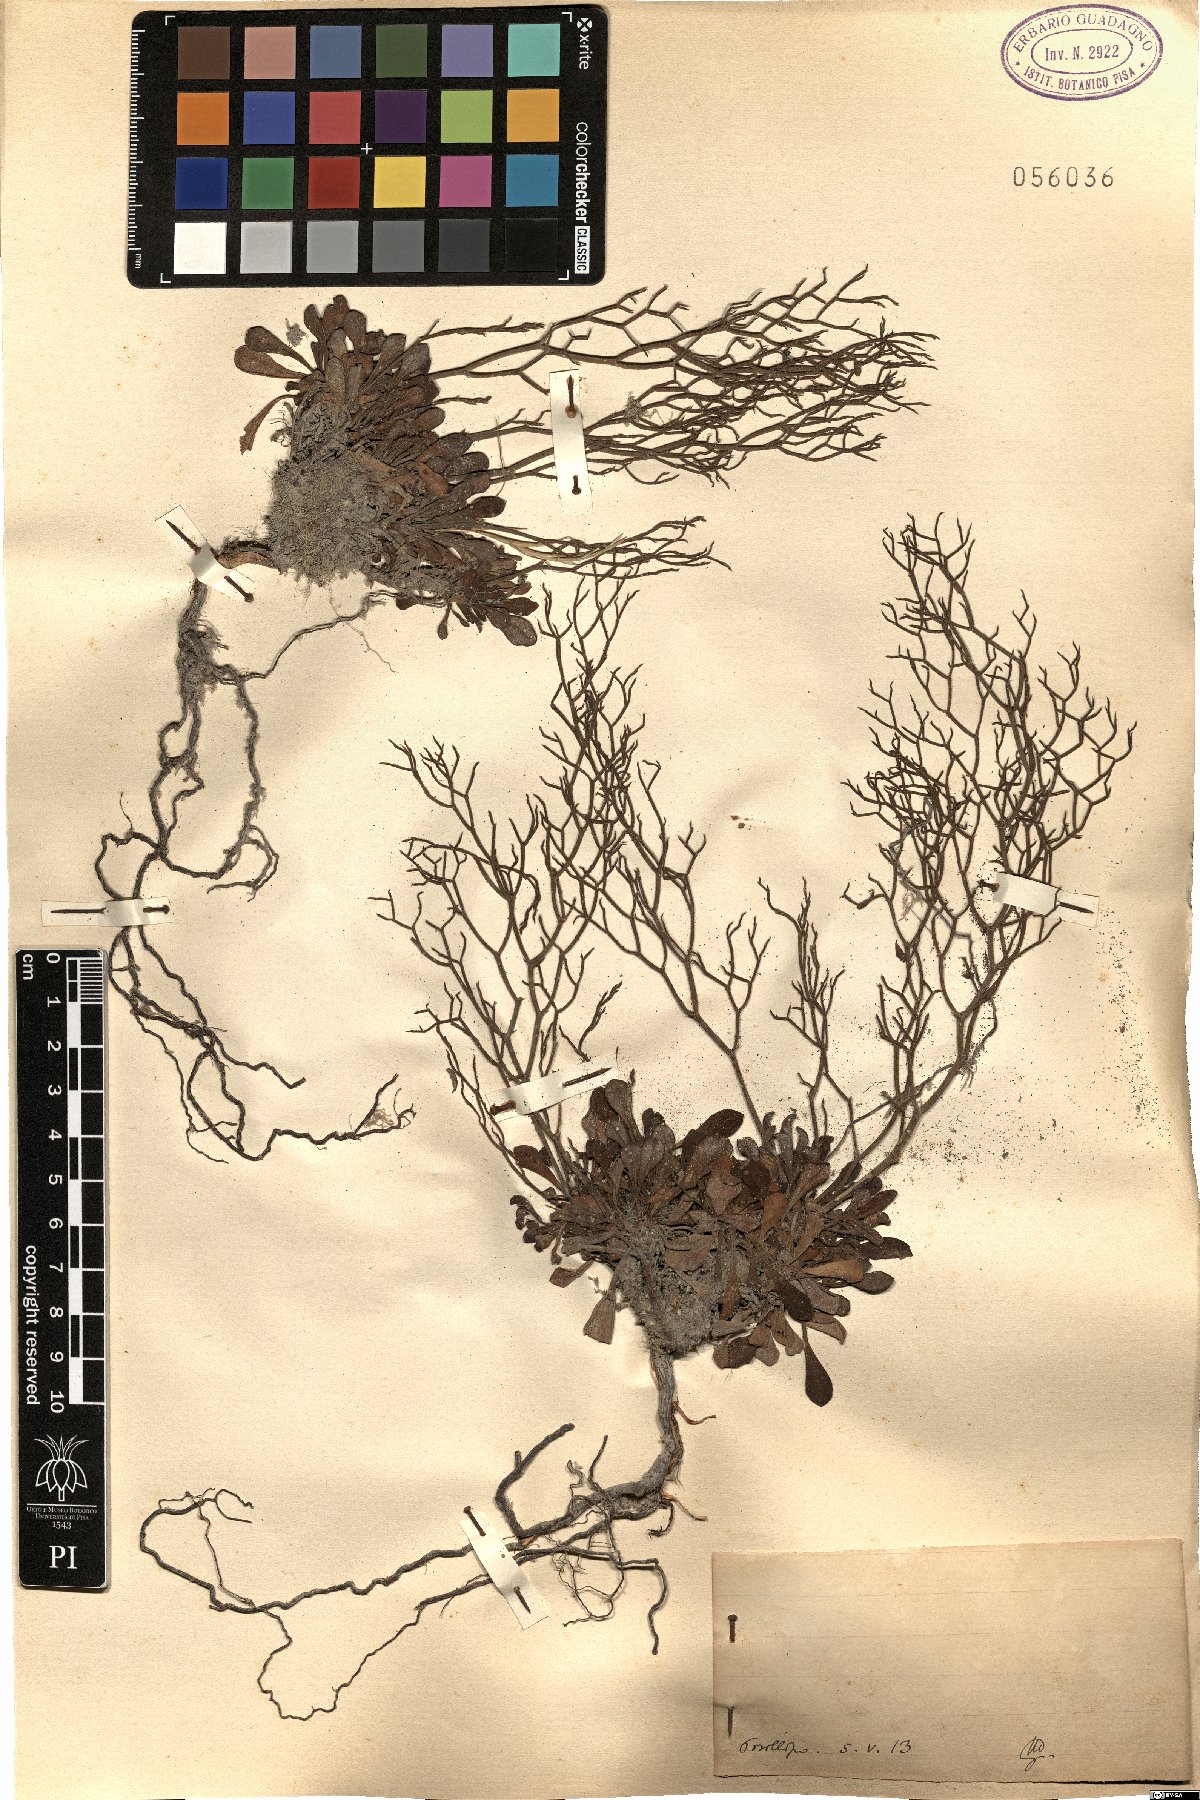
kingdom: Plantae
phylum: Tracheophyta
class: Magnoliopsida
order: Caryophyllales
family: Plumbaginaceae
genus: Armeria
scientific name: Armeria
